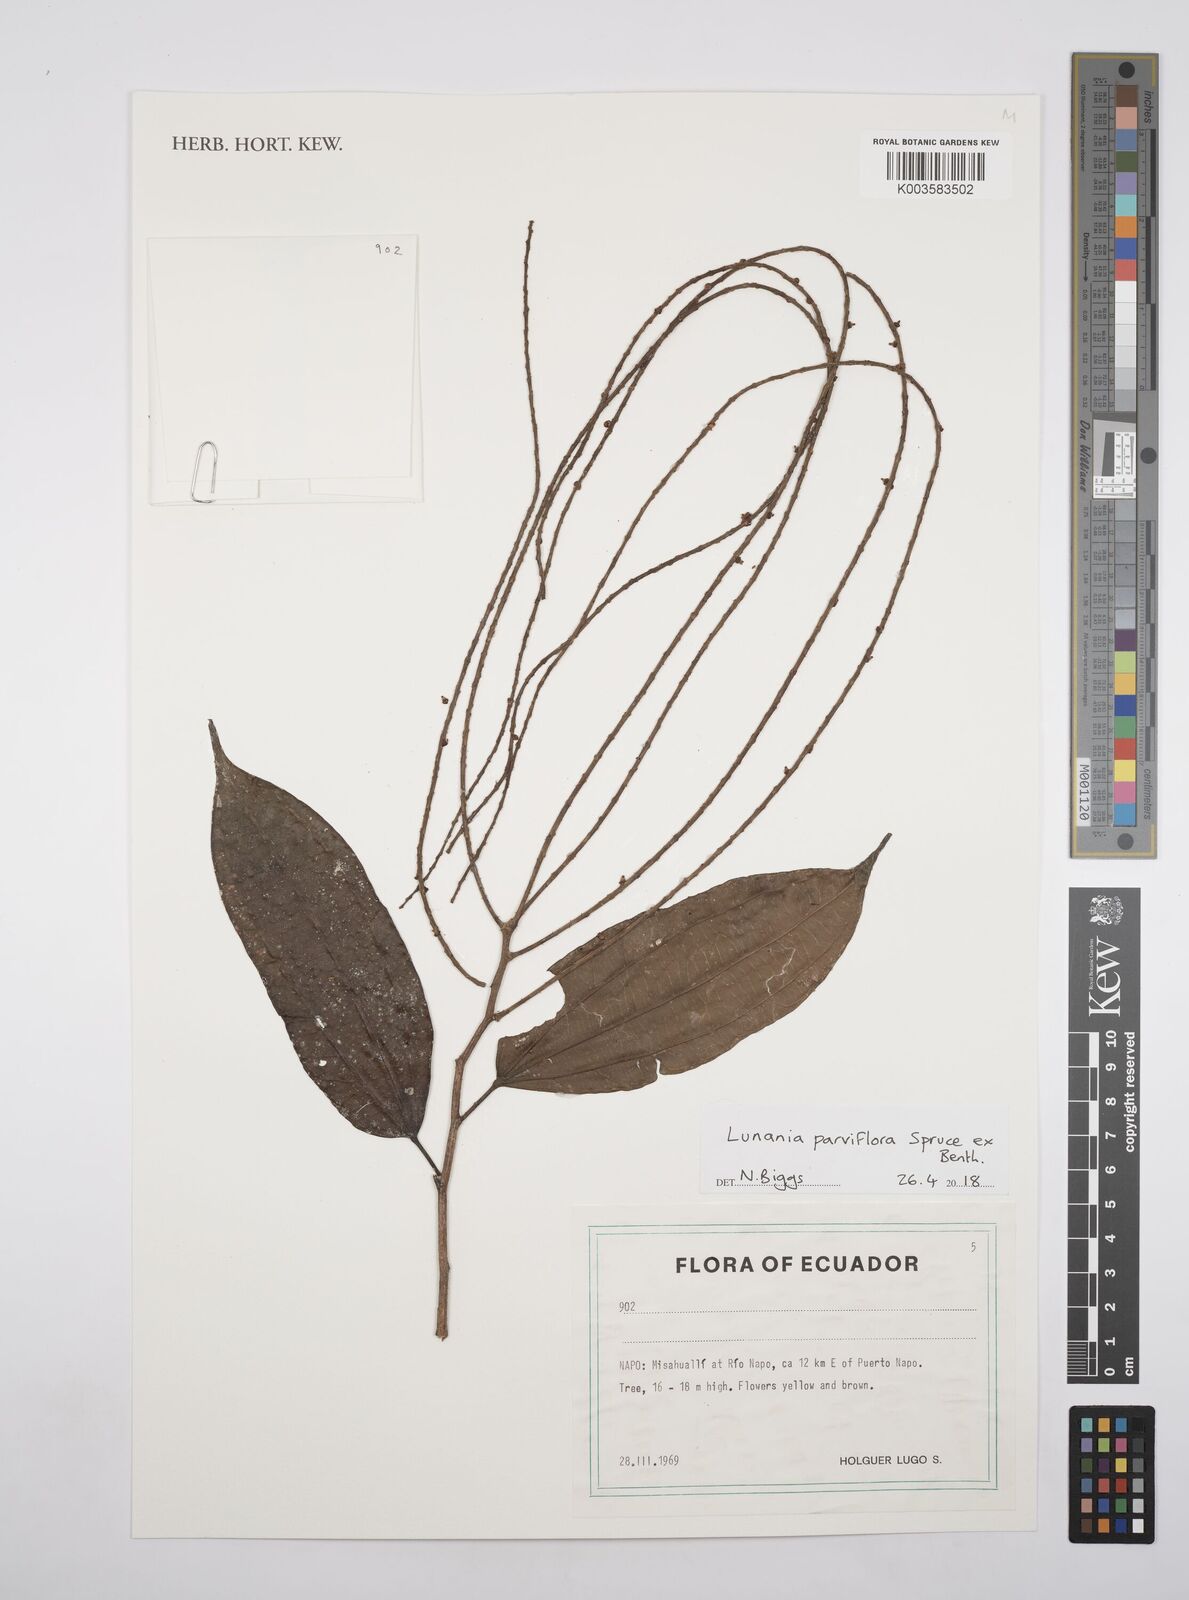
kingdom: Plantae
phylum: Tracheophyta
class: Magnoliopsida
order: Malpighiales
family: Salicaceae
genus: Lunania
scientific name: Lunania parviflora
